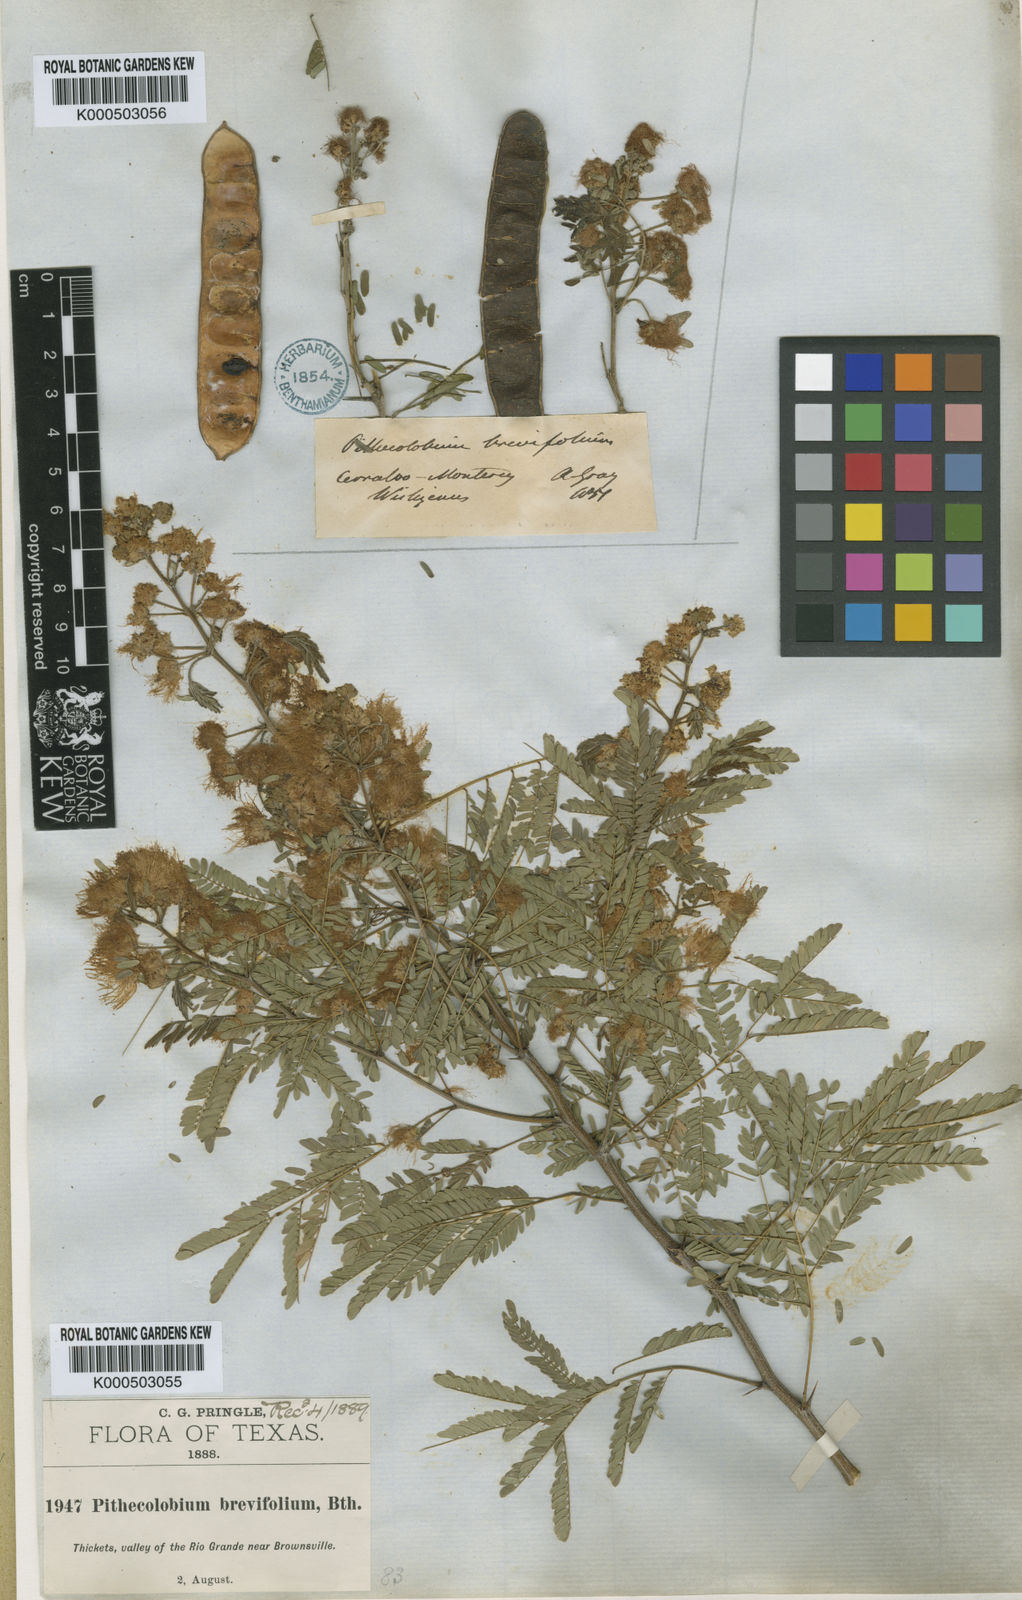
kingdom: Plantae
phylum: Tracheophyta
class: Magnoliopsida
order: Fabales
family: Fabaceae
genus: Havardia
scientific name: Havardia pallens
